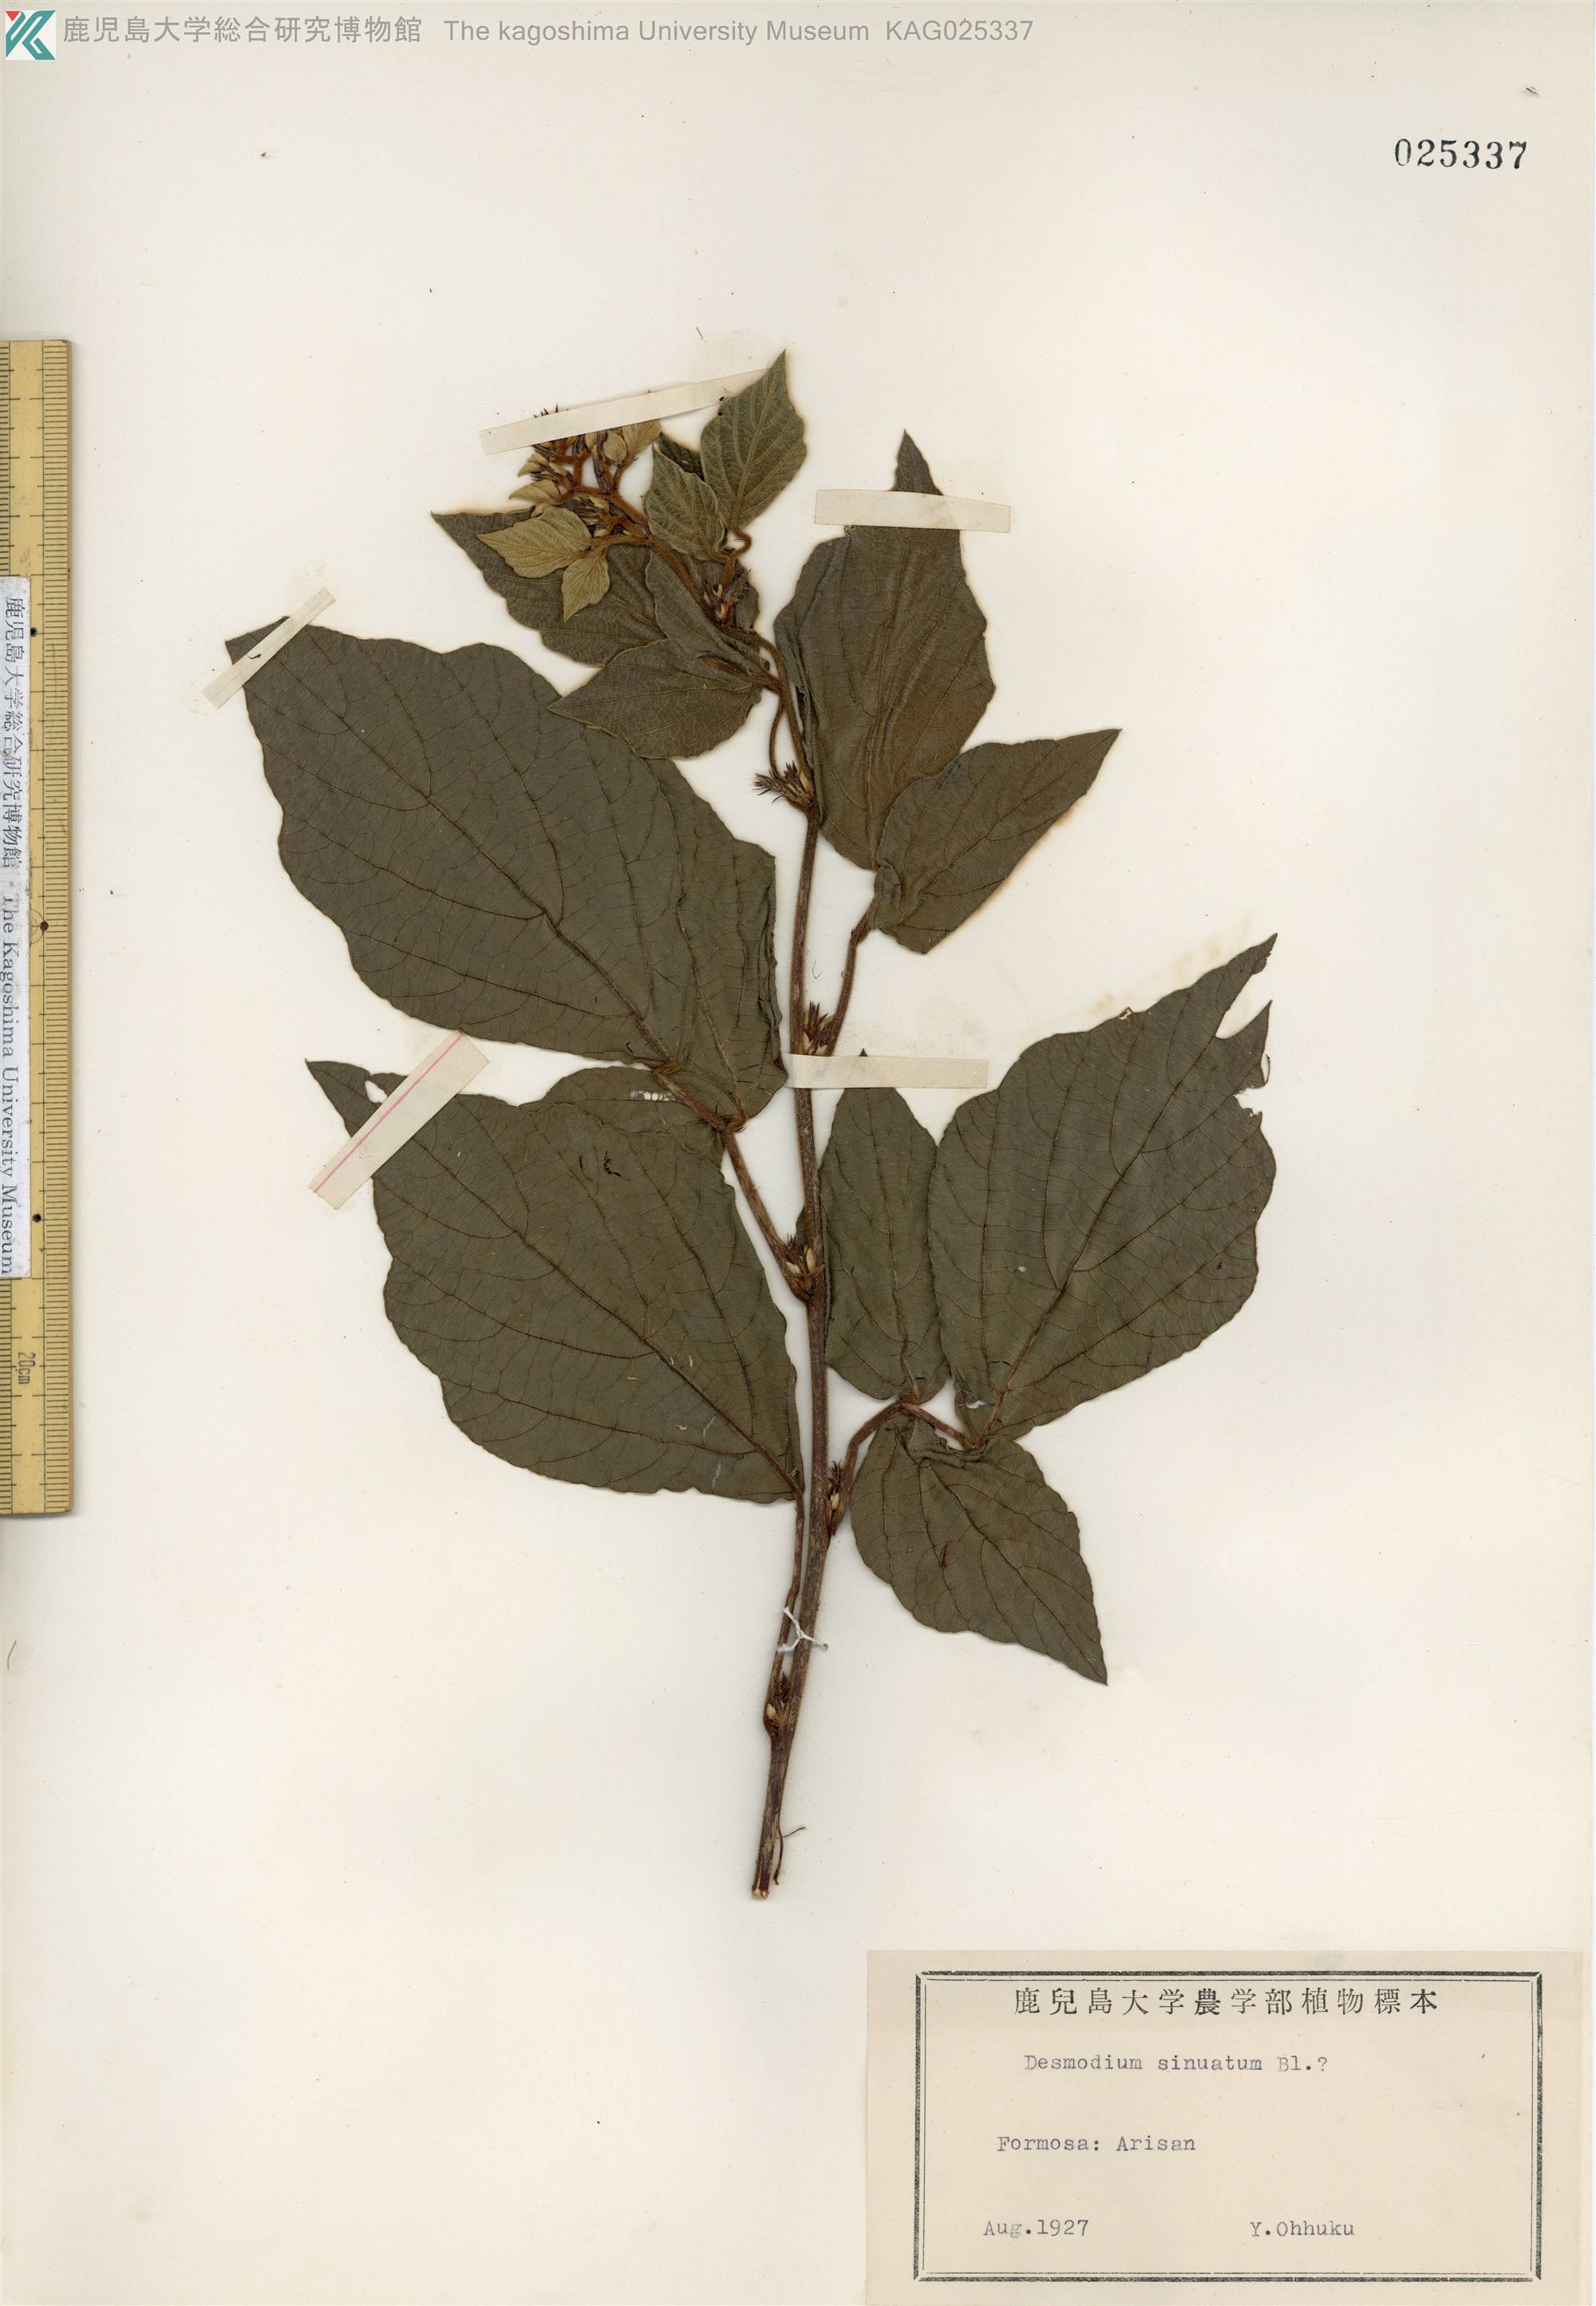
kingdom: Plantae
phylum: Tracheophyta
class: Magnoliopsida
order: Fabales
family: Fabaceae
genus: Puhuaea
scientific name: Puhuaea sequax
